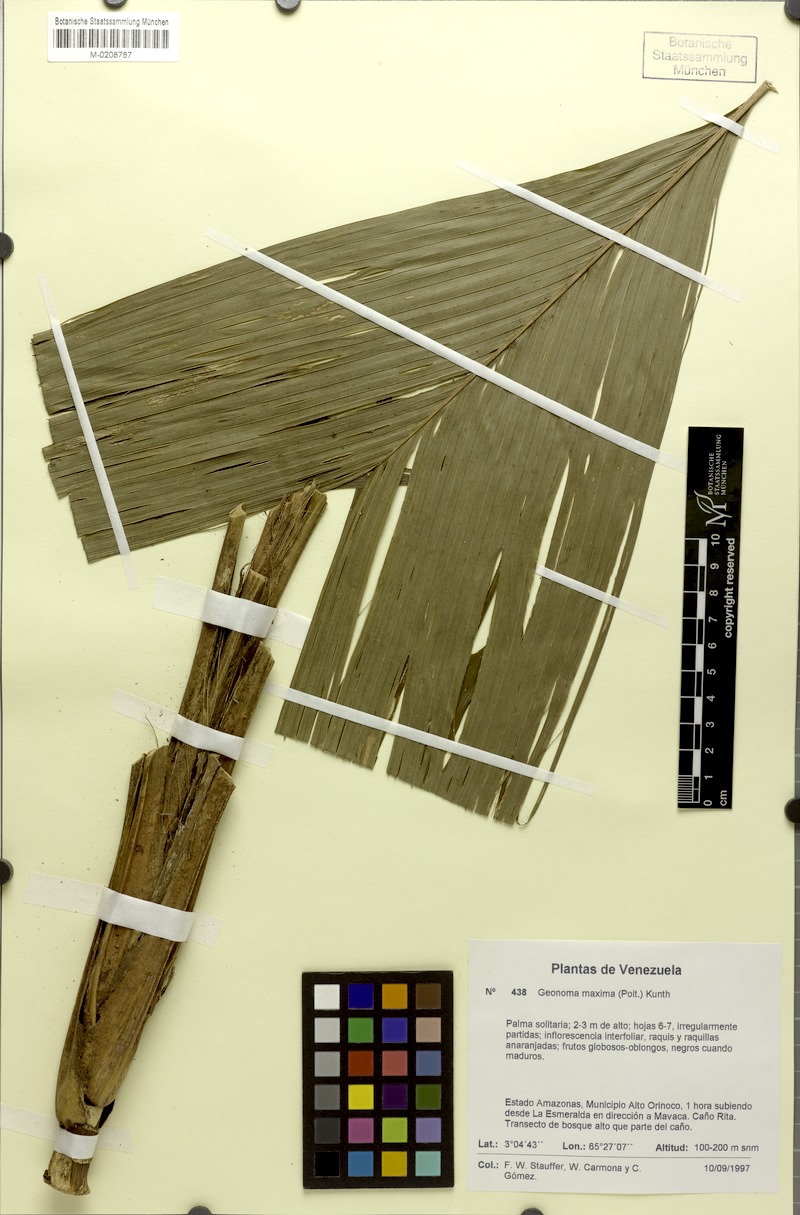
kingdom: Plantae
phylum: Tracheophyta
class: Liliopsida
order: Arecales
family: Arecaceae
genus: Geonoma
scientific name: Geonoma maxima
